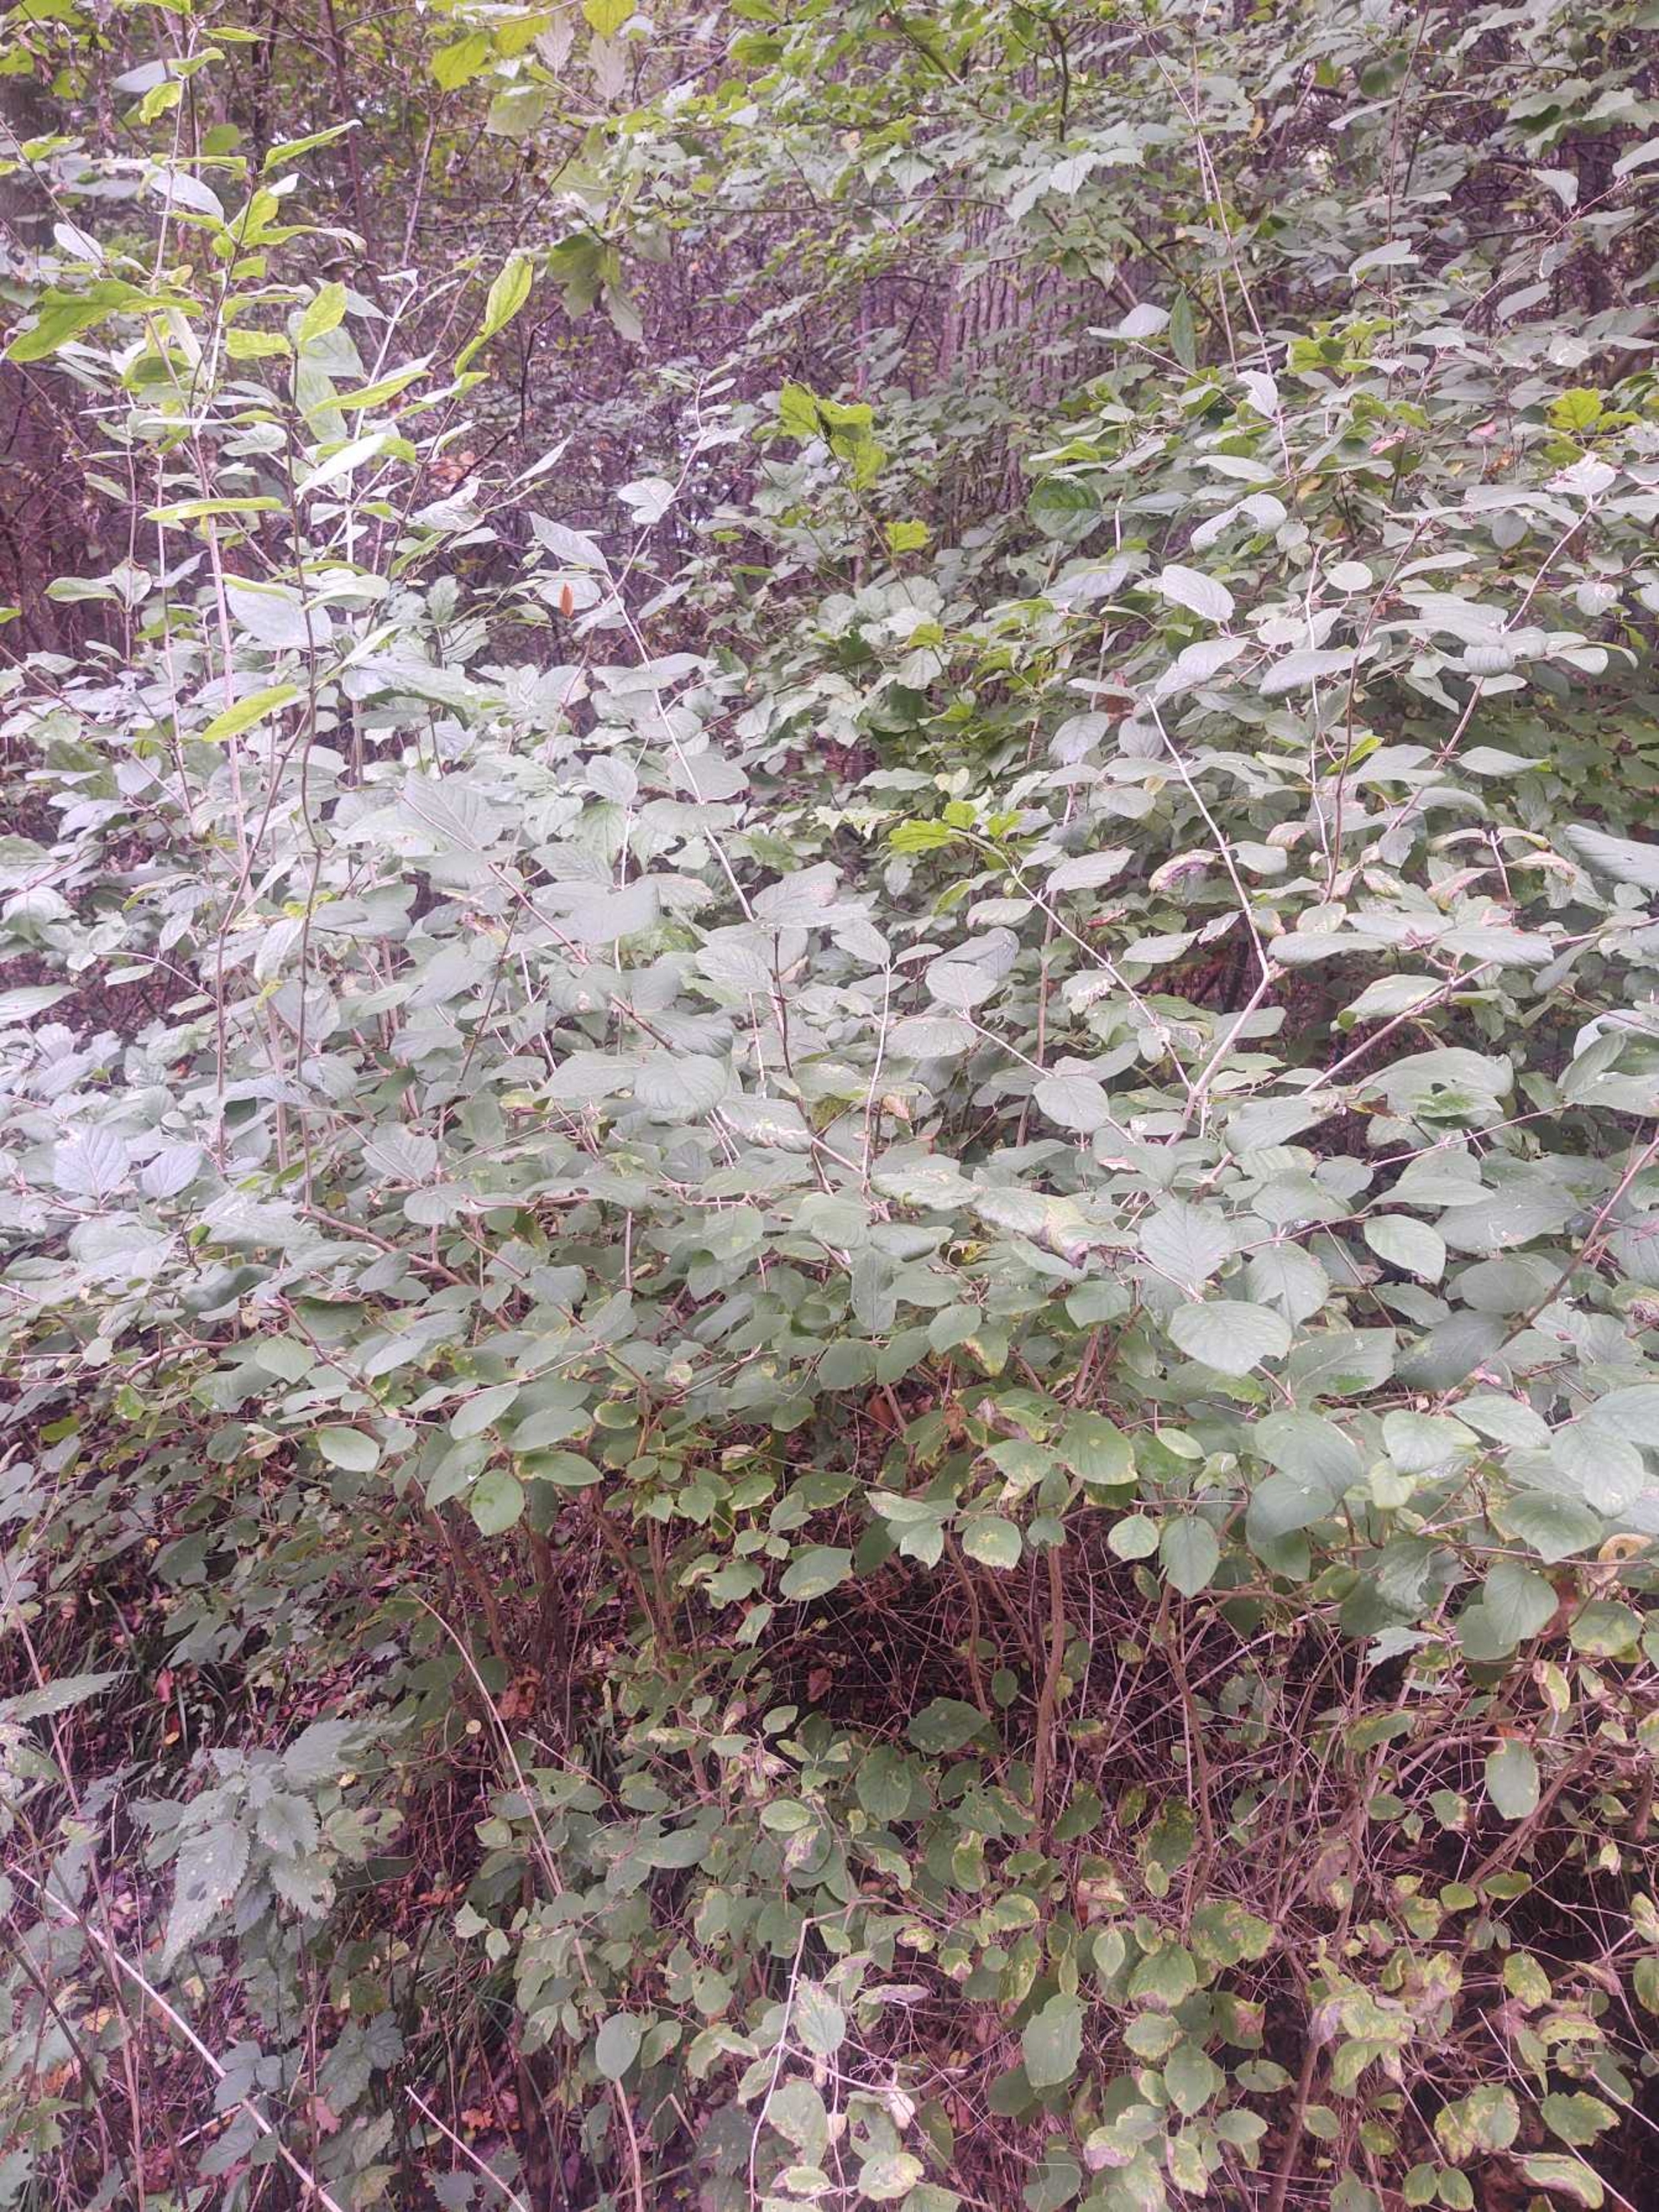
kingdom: Plantae
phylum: Tracheophyta
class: Magnoliopsida
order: Dipsacales
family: Caprifoliaceae
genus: Lonicera
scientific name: Lonicera xylosteum
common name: Dunet gedeblad
